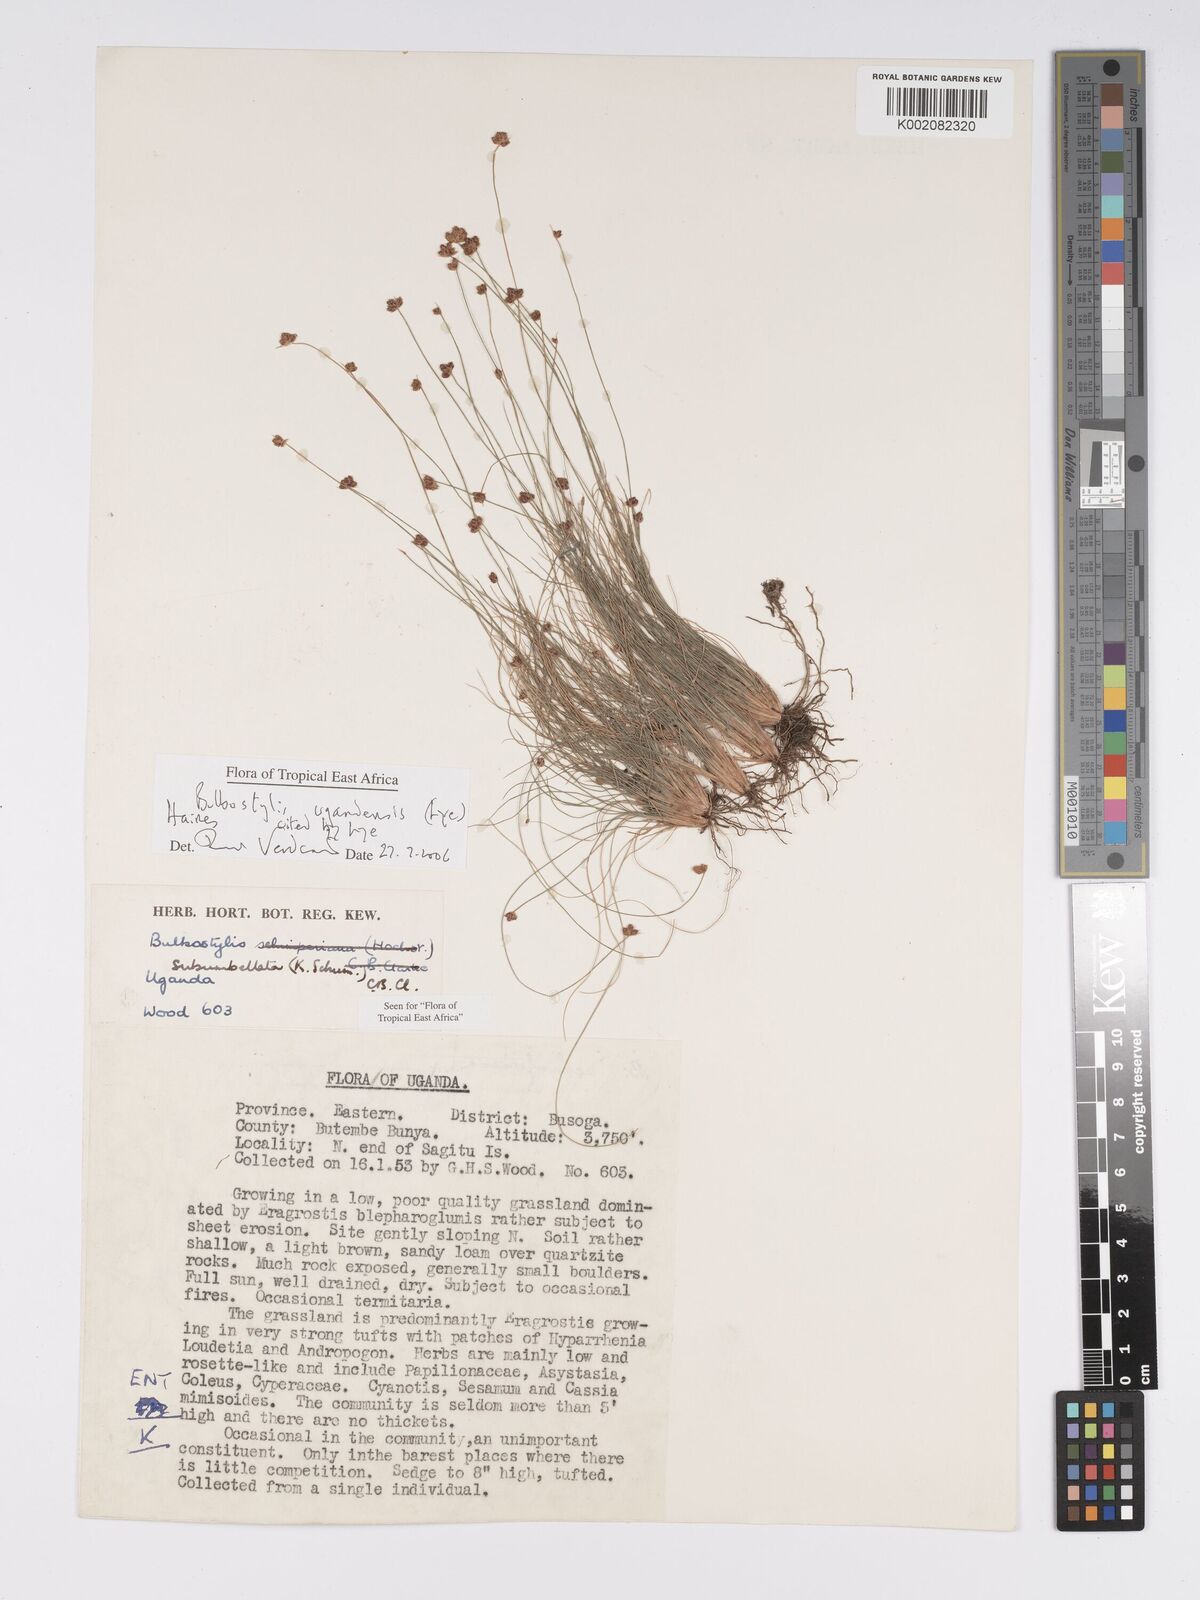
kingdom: Plantae
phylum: Tracheophyta
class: Liliopsida
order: Poales
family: Cyperaceae
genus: Bulbostylis
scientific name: Bulbostylis ugandensis
